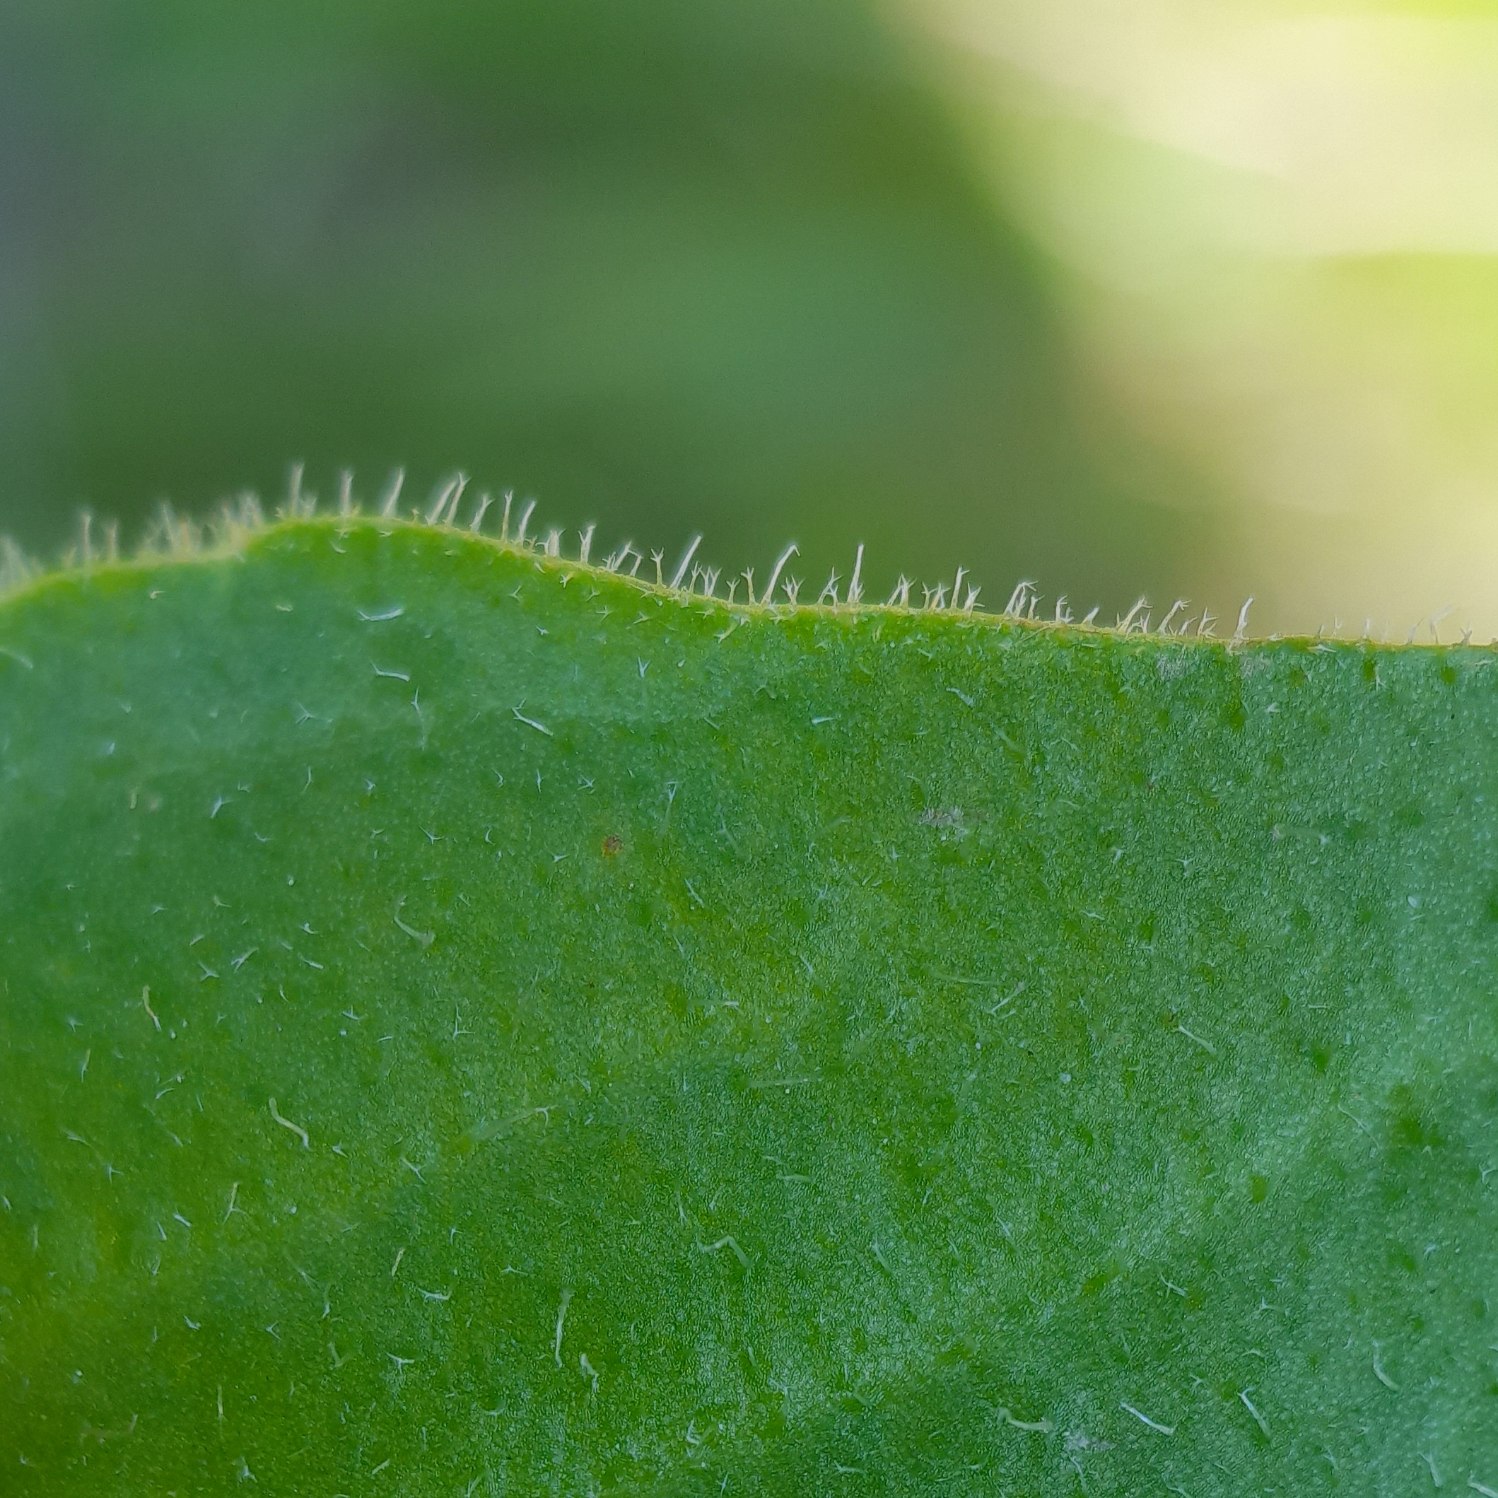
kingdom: Plantae
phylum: Tracheophyta
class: Magnoliopsida
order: Asterales
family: Asteraceae
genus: Leontodon
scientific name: Leontodon hispidus
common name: Stivhåret borst
